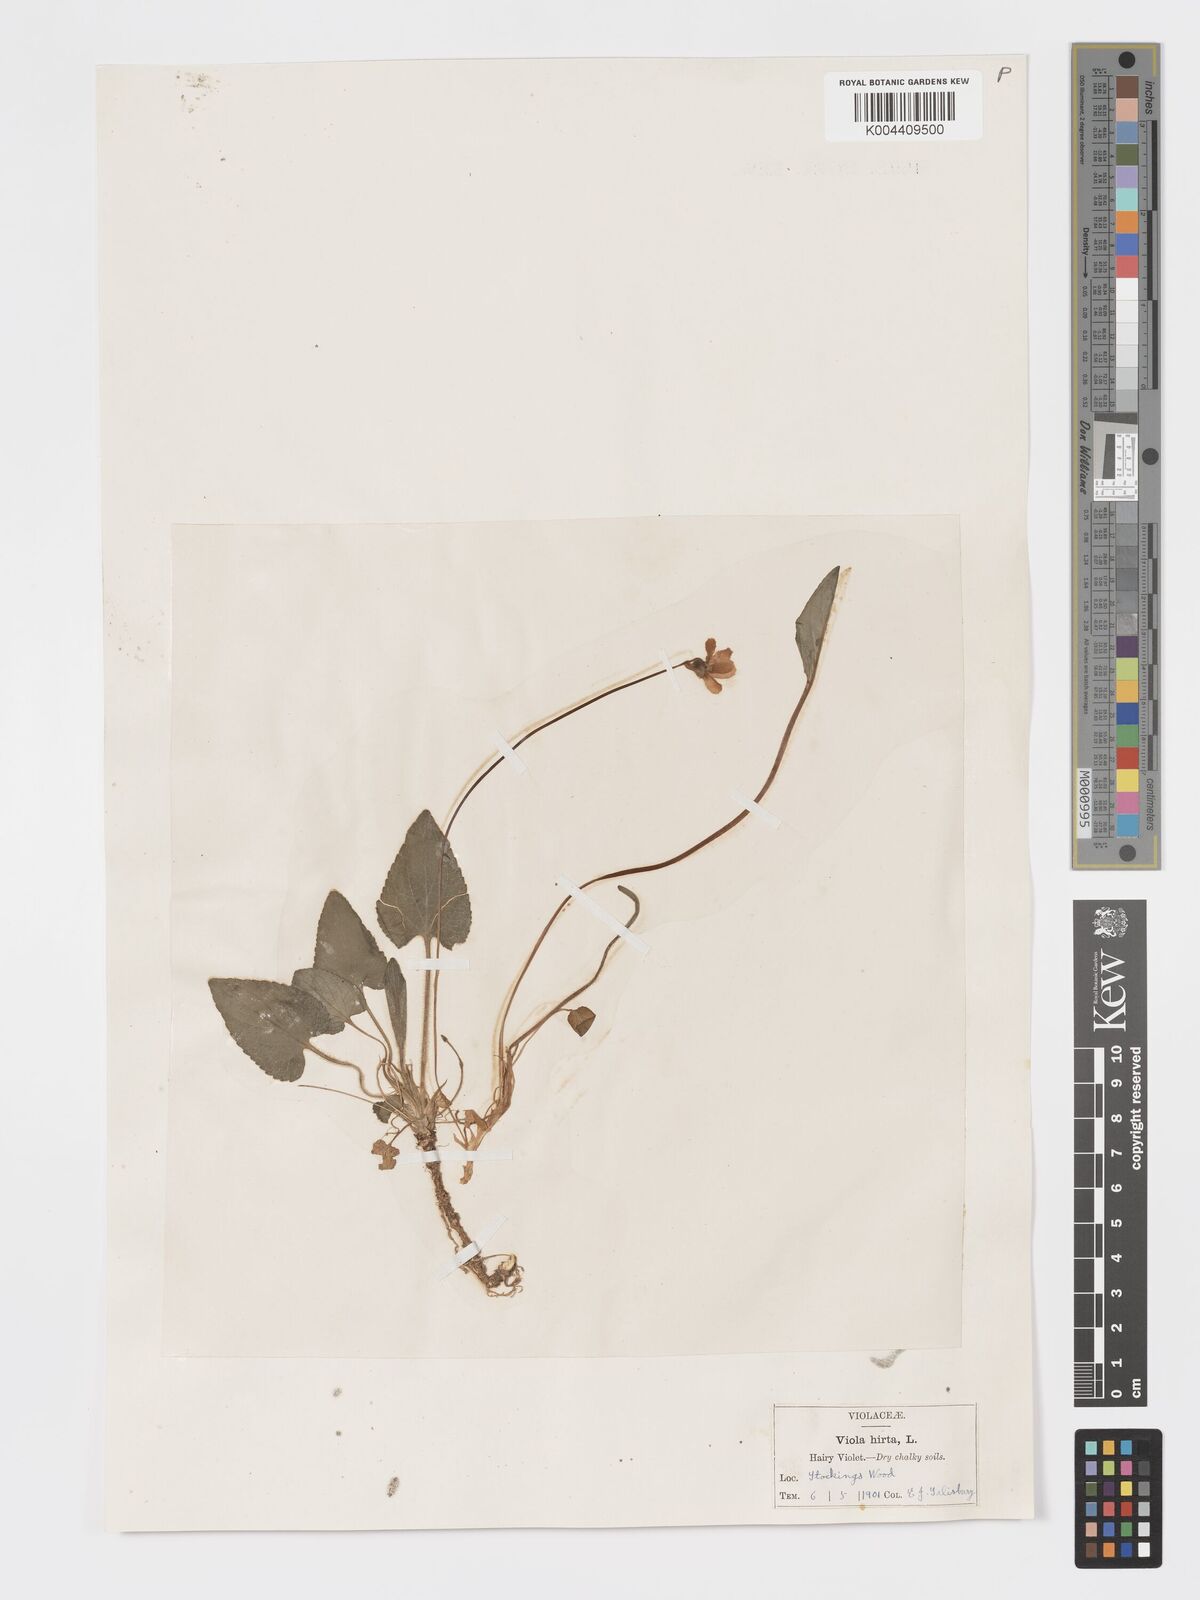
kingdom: Plantae
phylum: Tracheophyta
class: Magnoliopsida
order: Malpighiales
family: Violaceae
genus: Viola
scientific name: Viola
